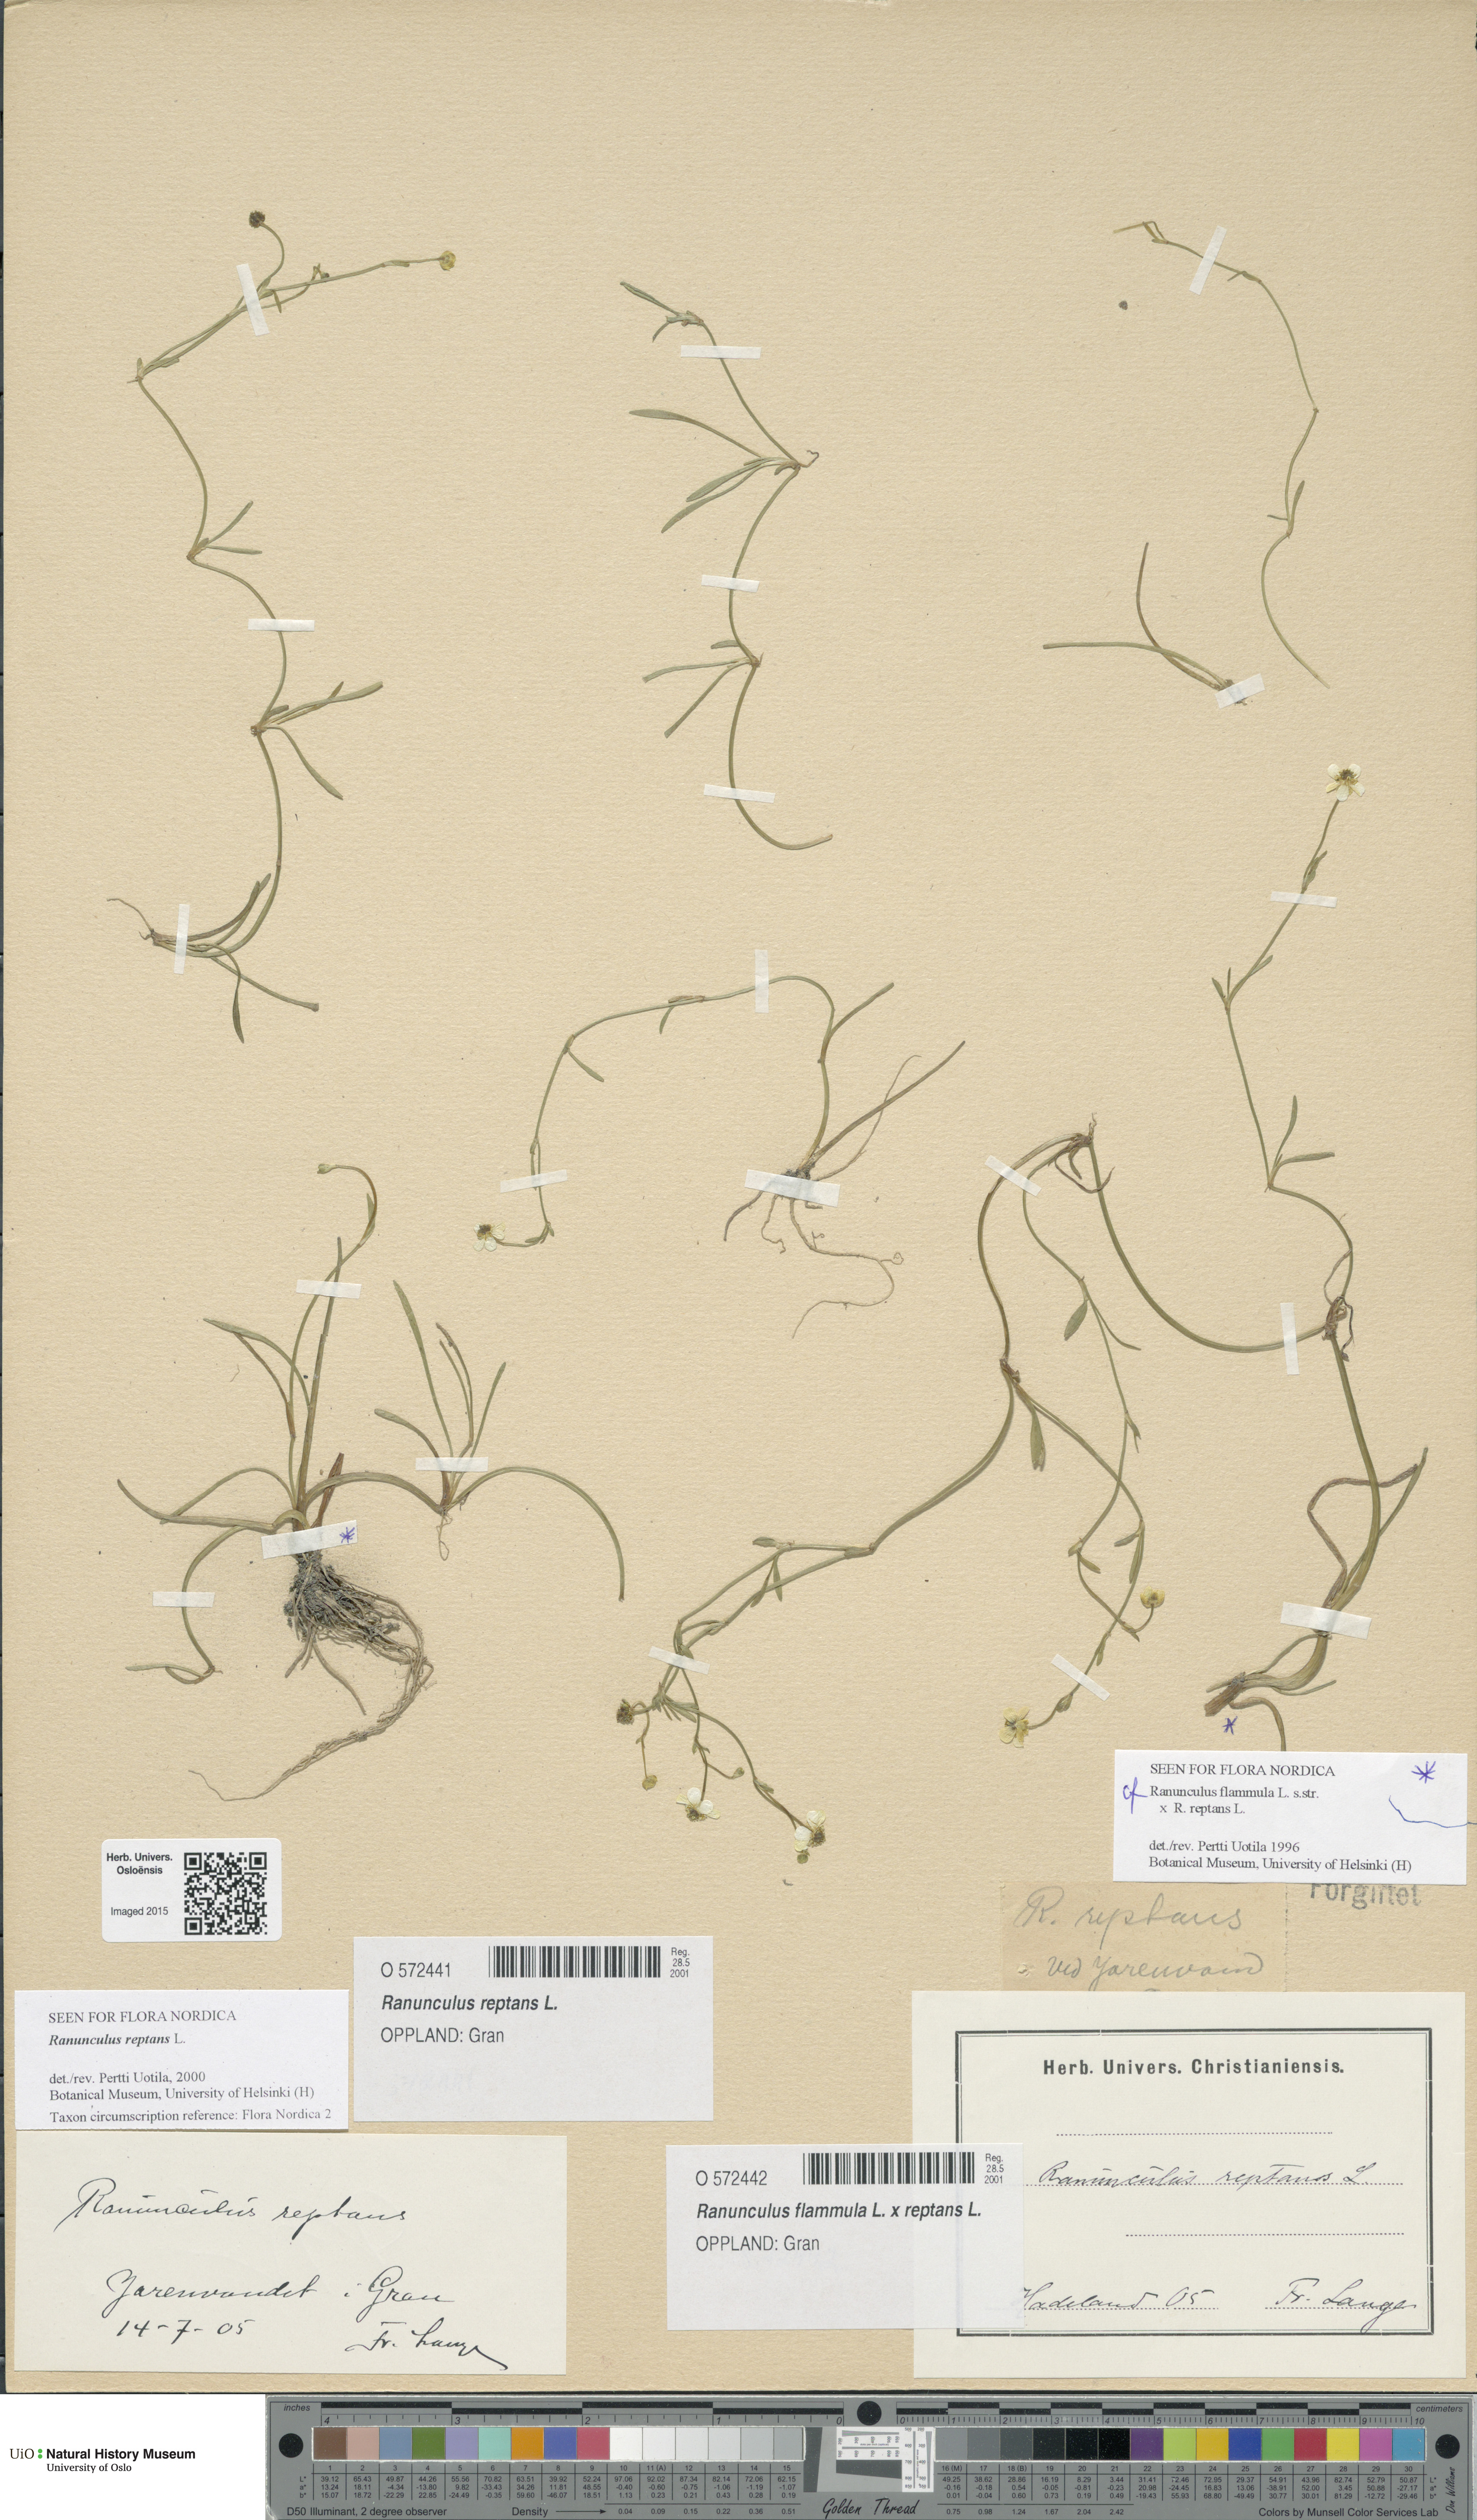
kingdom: Plantae
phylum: Tracheophyta
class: Magnoliopsida
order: Ranunculales
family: Ranunculaceae
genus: Ranunculus
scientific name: Ranunculus
